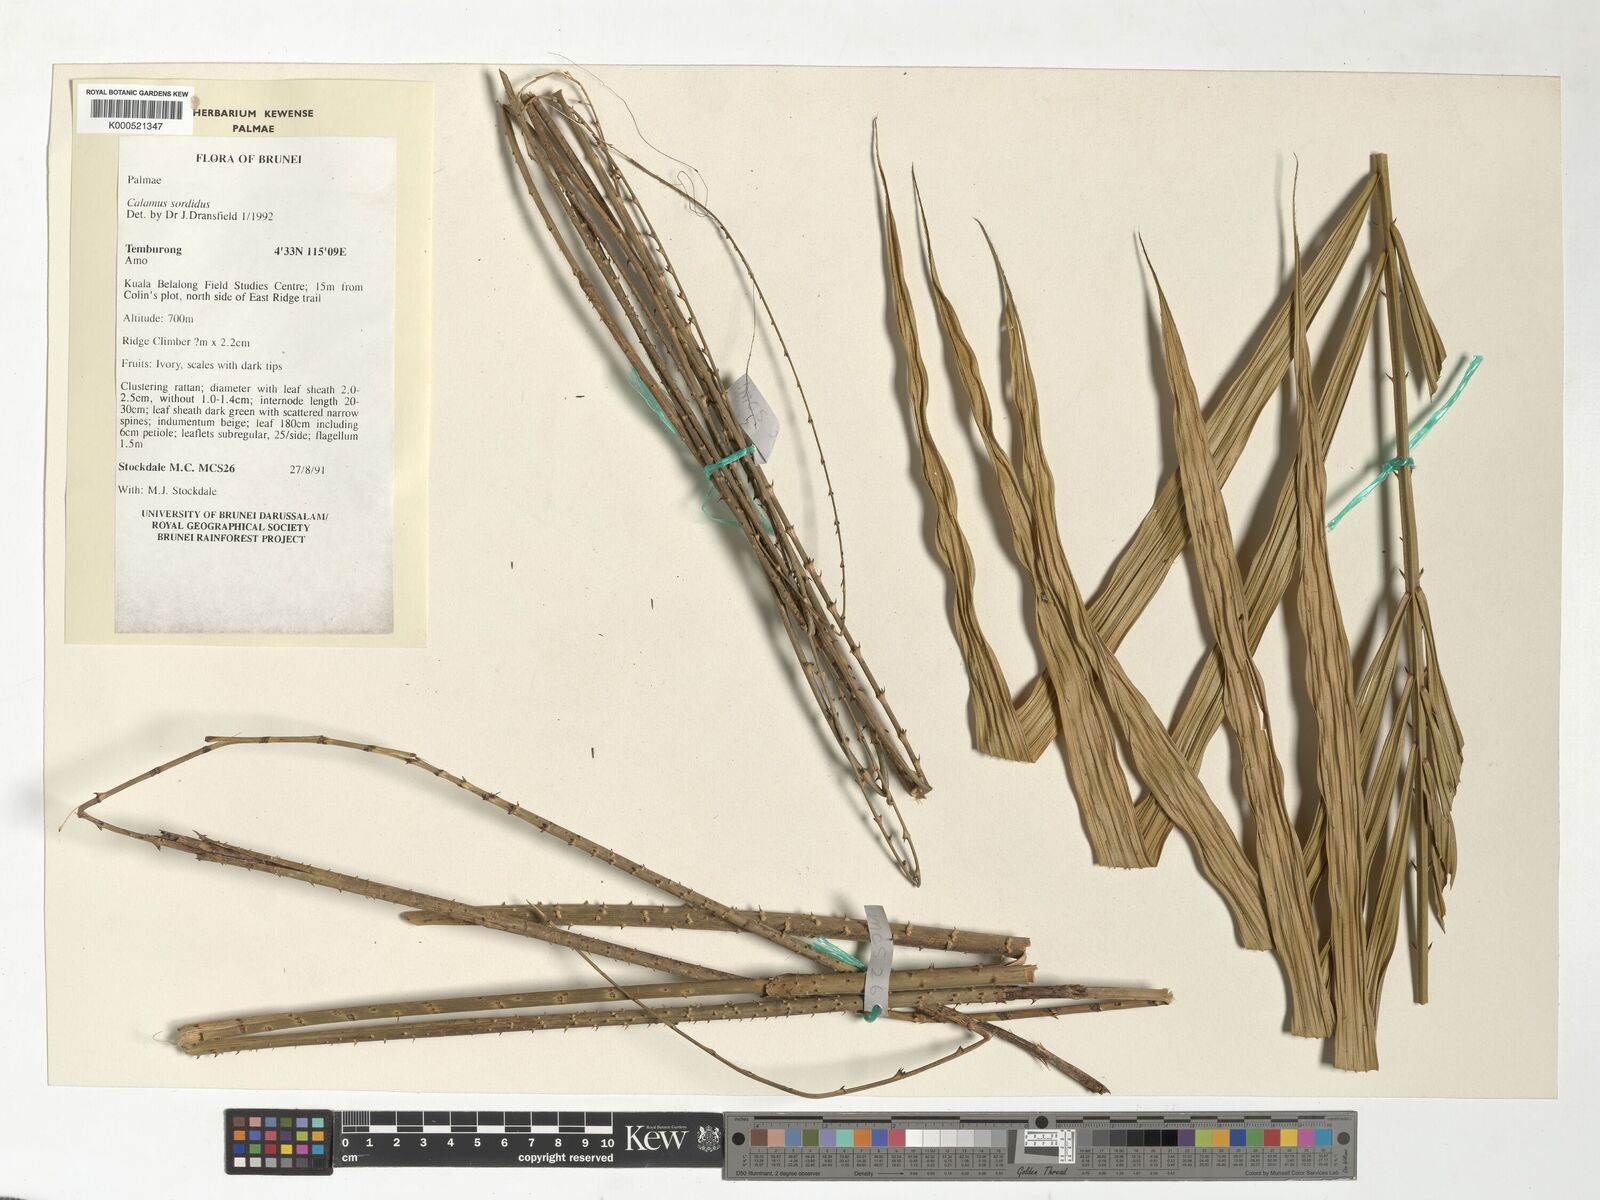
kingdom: Plantae
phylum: Tracheophyta
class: Liliopsida
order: Arecales
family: Arecaceae
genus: Calamus
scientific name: Calamus sordidus
